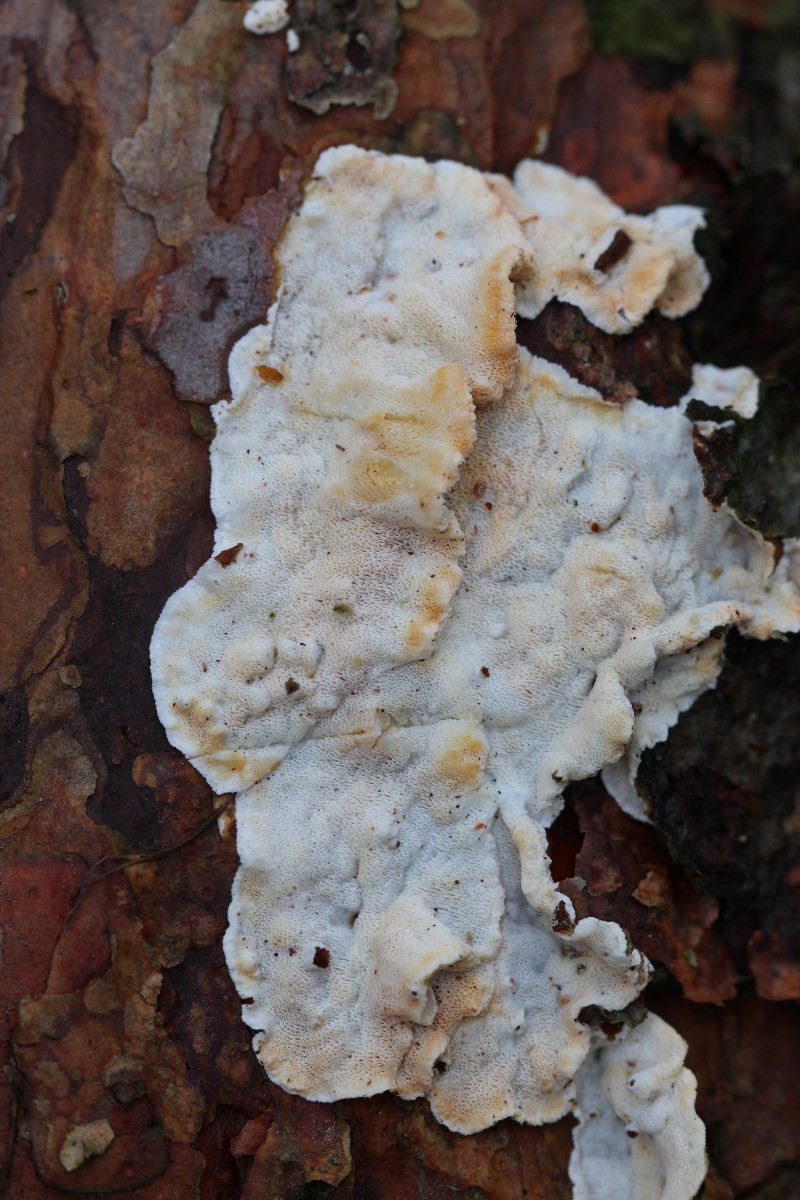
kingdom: Fungi
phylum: Basidiomycota
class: Agaricomycetes
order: Polyporales
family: Incrustoporiaceae
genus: Skeletocutis
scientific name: Skeletocutis amorpha
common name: orange krystalporesvamp
